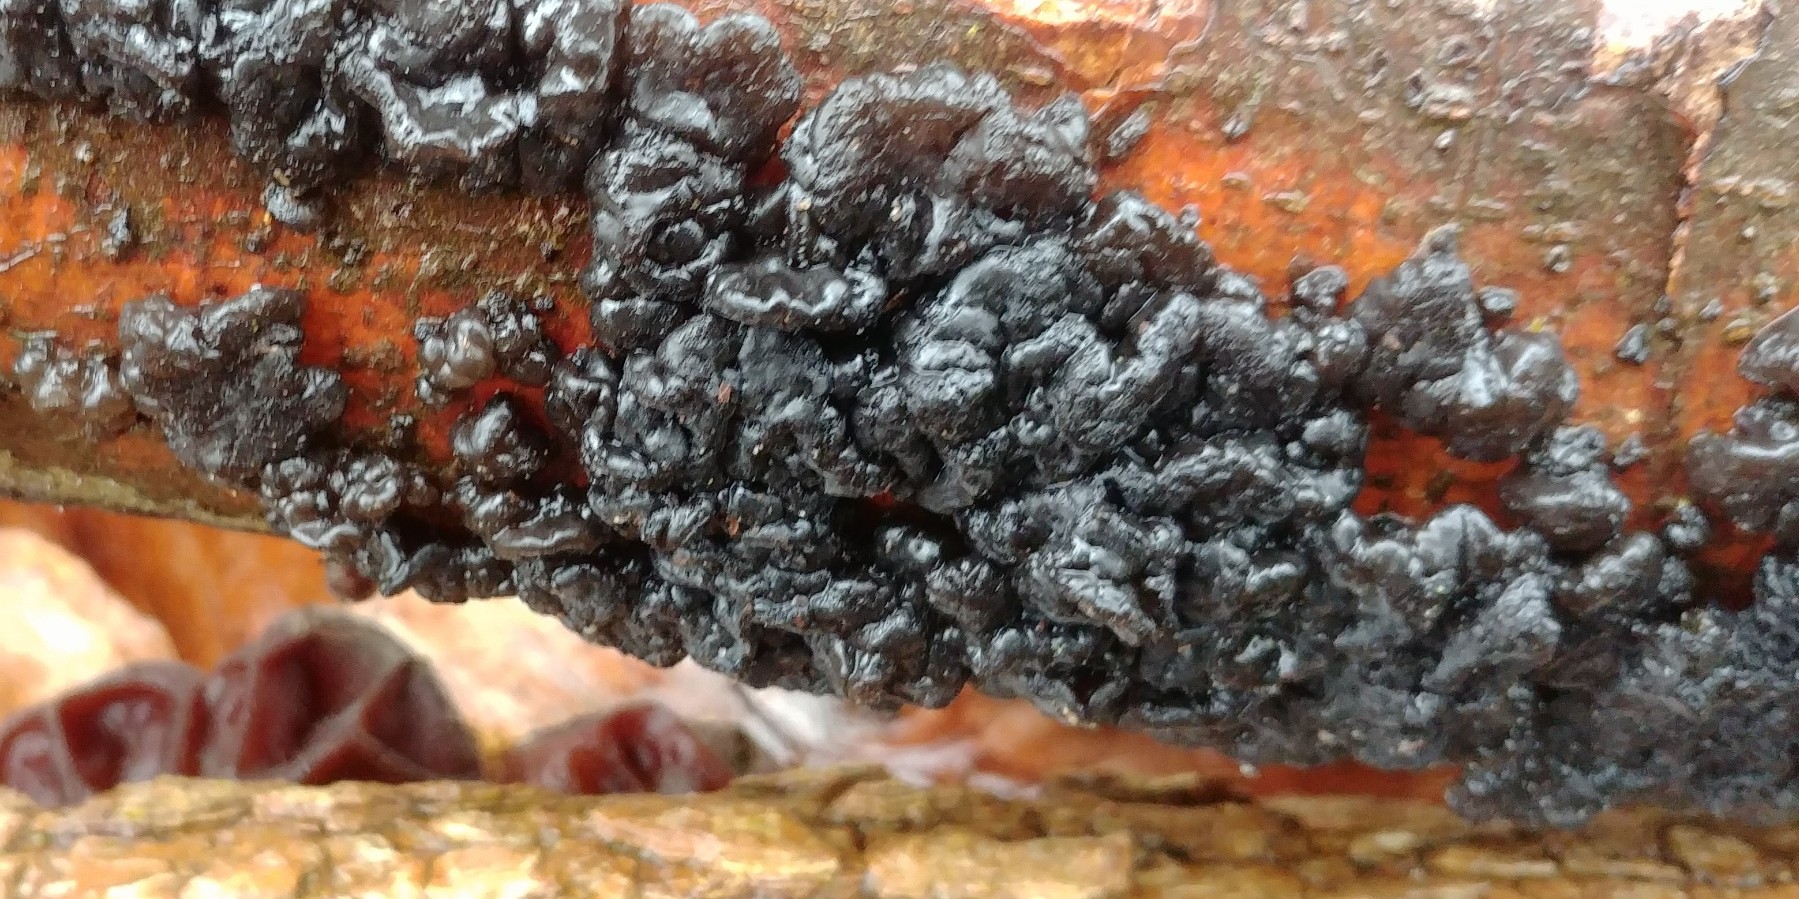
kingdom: Fungi
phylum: Basidiomycota
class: Agaricomycetes
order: Auriculariales
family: Auriculariaceae
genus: Exidia
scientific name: Exidia nigricans
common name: almindelig bævretop
